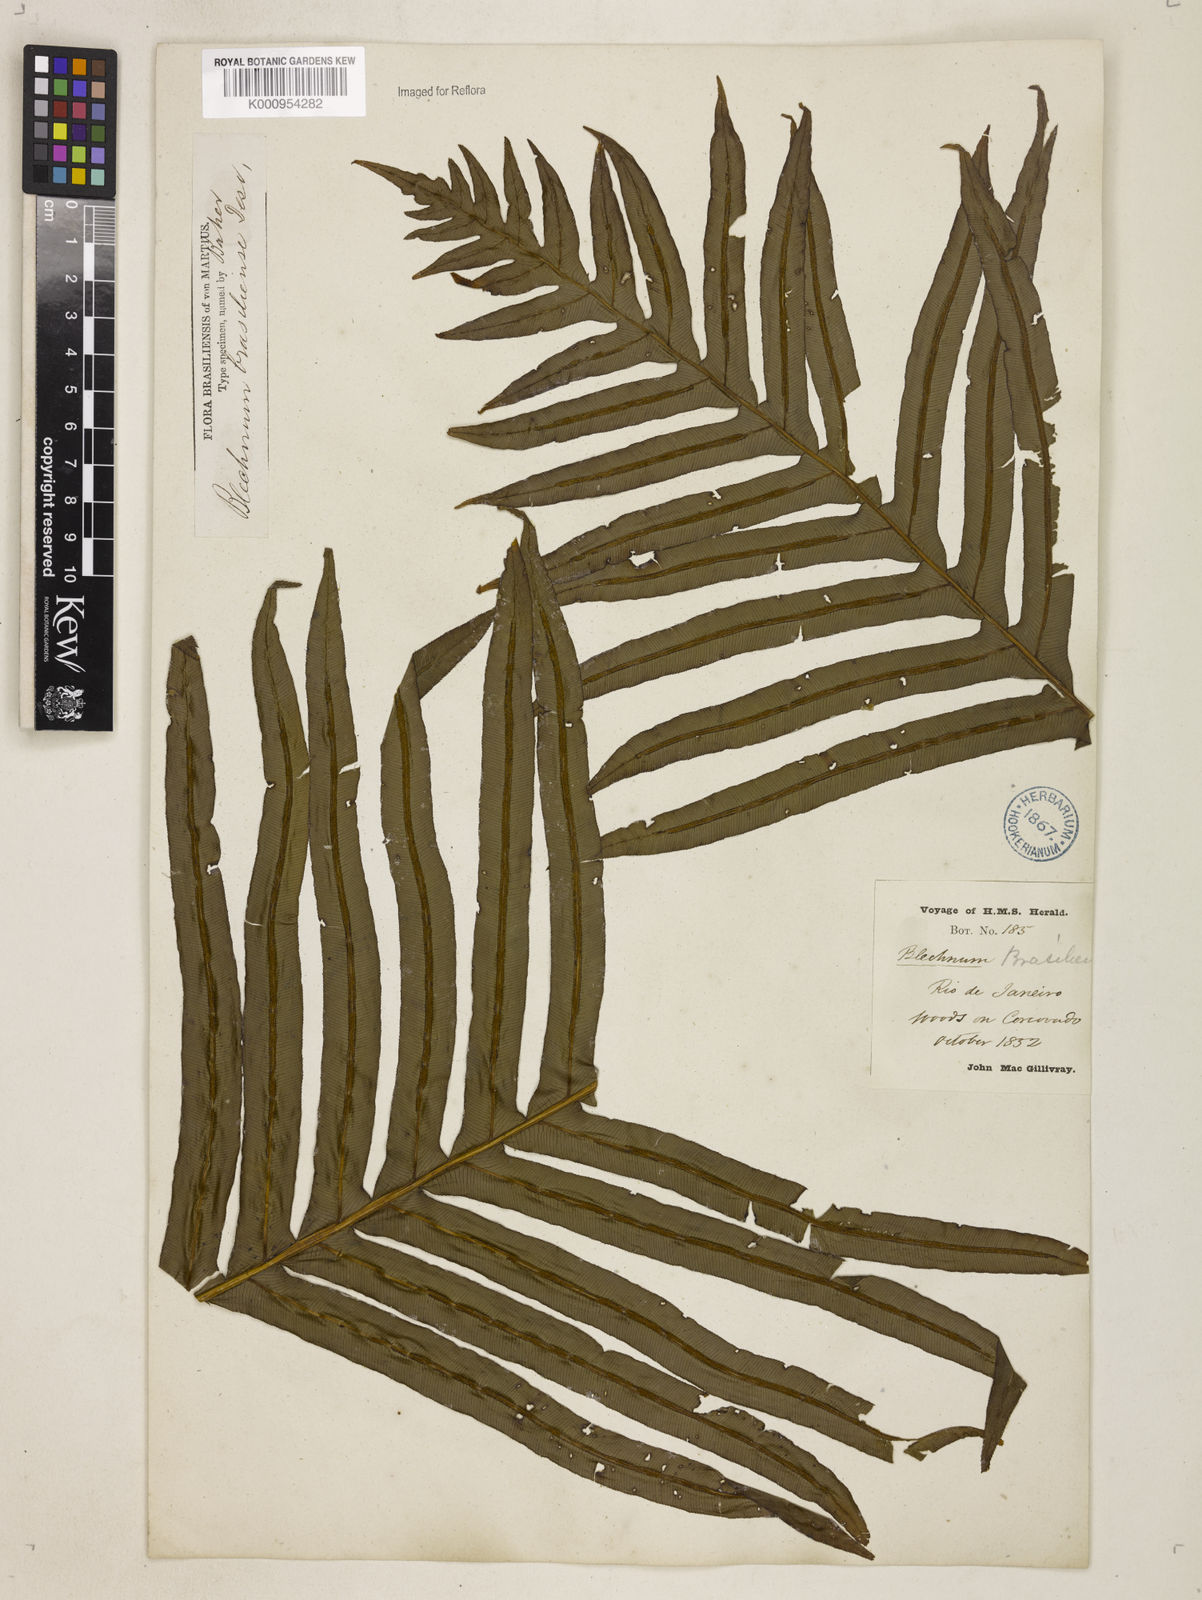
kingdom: Plantae
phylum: Tracheophyta
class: Polypodiopsida
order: Polypodiales
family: Blechnaceae
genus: Neoblechnum
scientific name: Neoblechnum brasiliense
